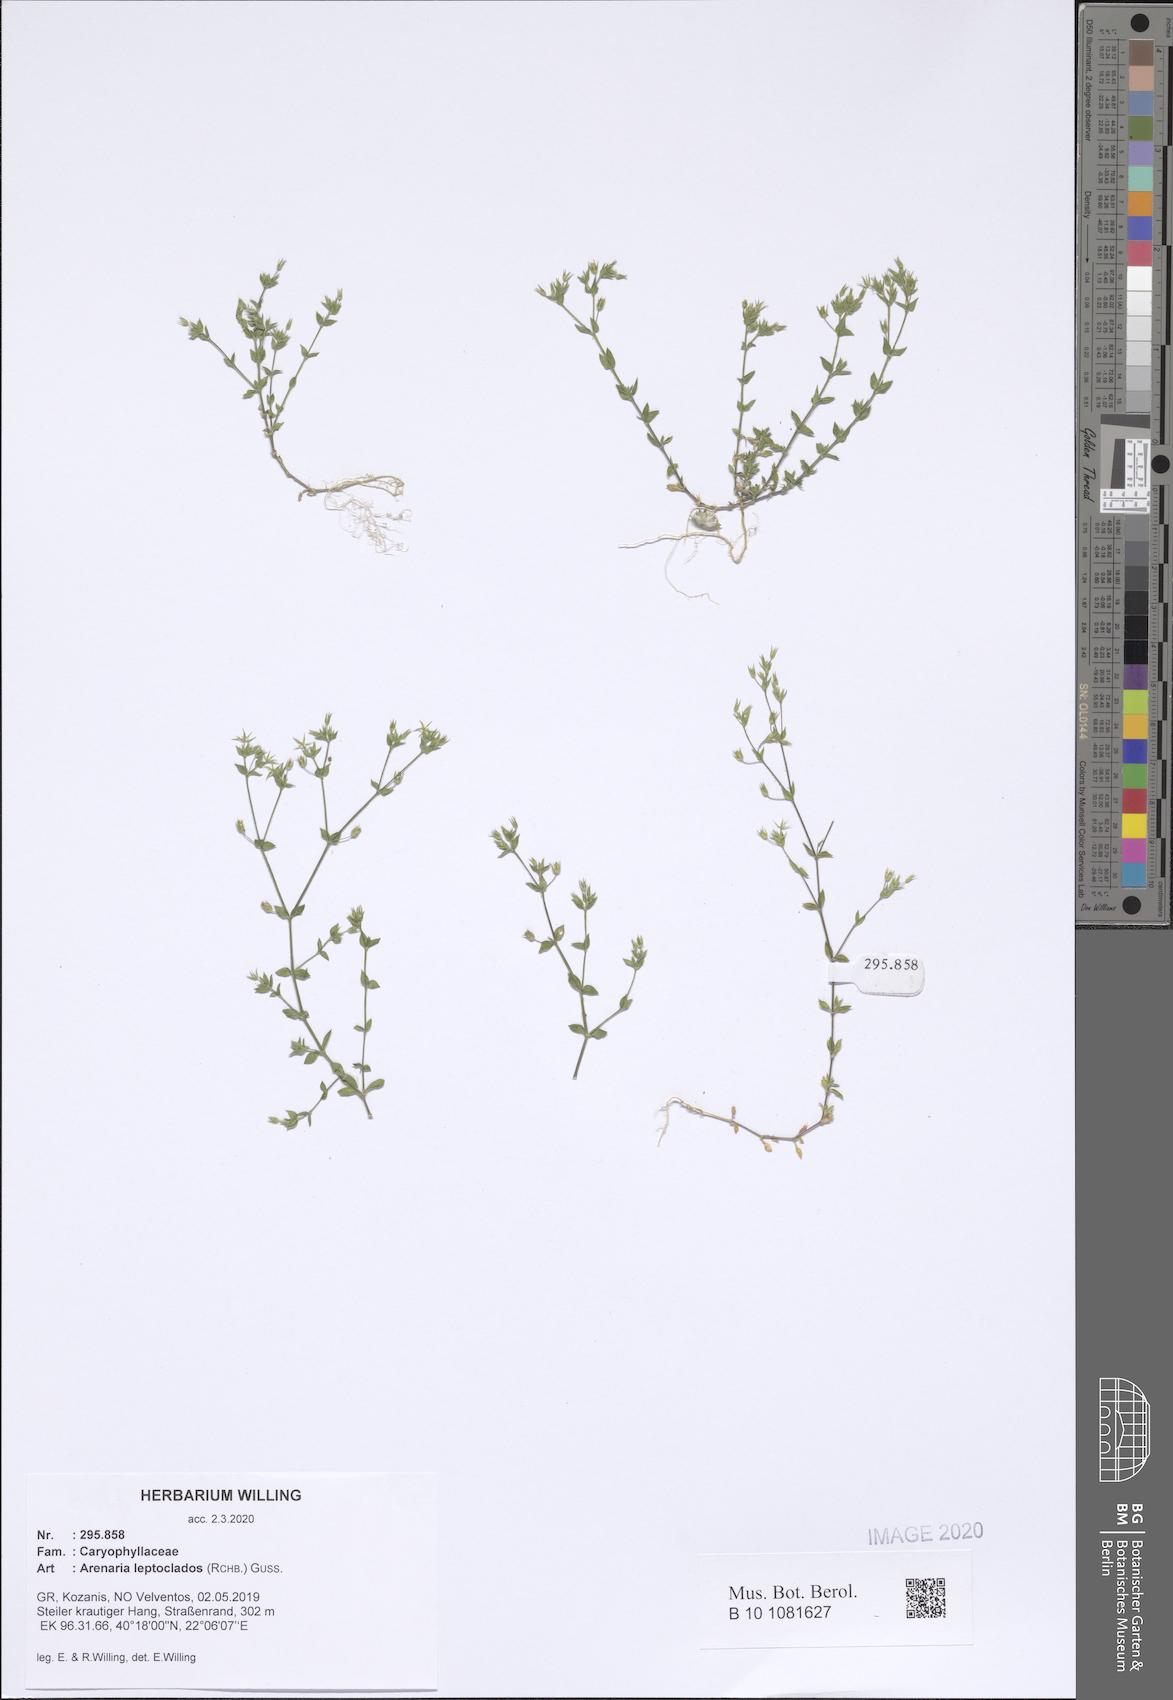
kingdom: Plantae
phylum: Tracheophyta
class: Magnoliopsida
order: Caryophyllales
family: Caryophyllaceae
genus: Arenaria
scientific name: Arenaria leptoclados
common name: Thyme-leaved sandwort
